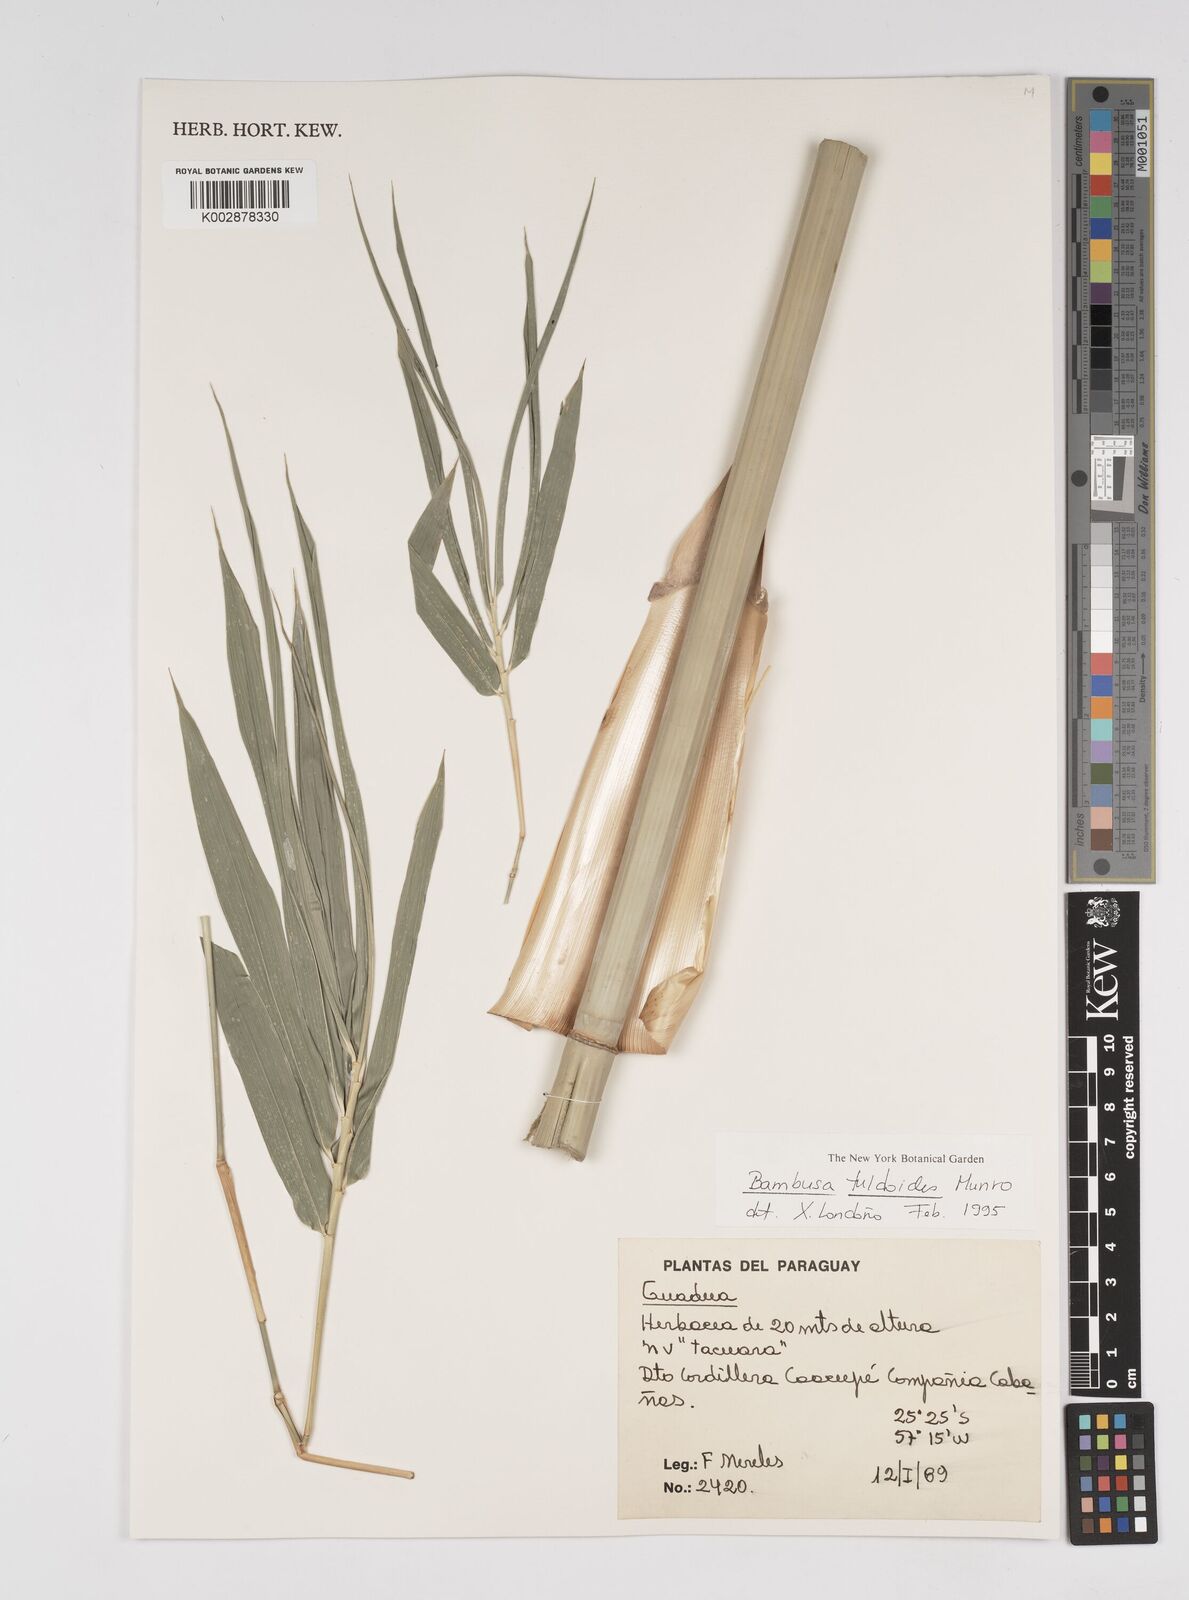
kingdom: Plantae
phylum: Tracheophyta
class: Liliopsida
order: Poales
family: Poaceae
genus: Bambusa
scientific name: Bambusa tuldoides
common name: Verdant bamboo
